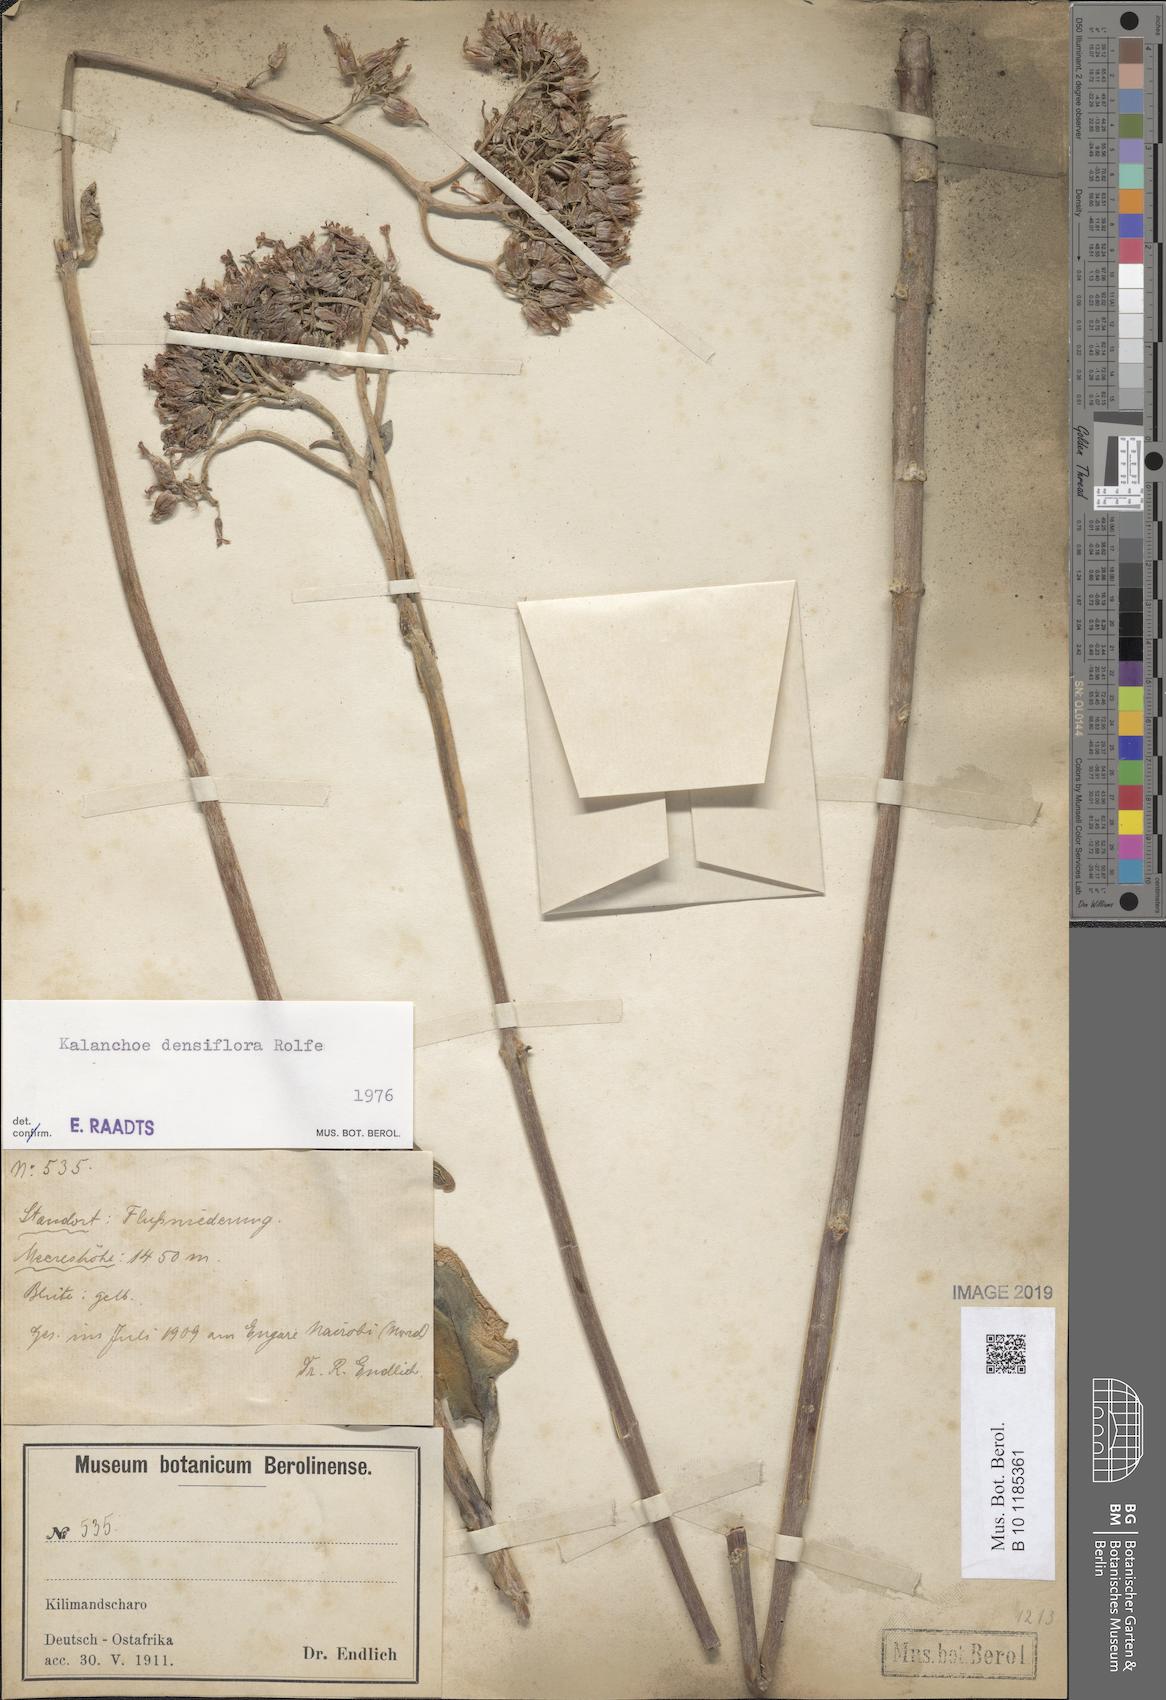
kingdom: Plantae
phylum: Tracheophyta
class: Magnoliopsida
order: Saxifragales
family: Crassulaceae
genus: Kalanchoe
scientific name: Kalanchoe densiflora
